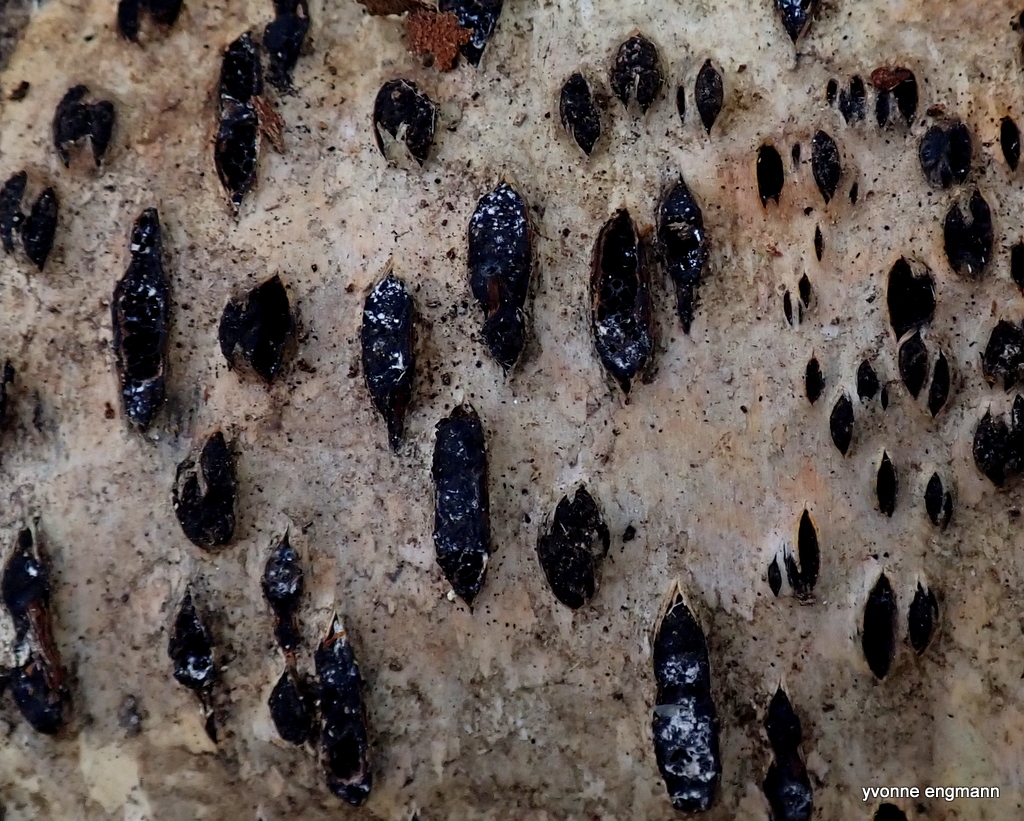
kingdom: Fungi
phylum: Ascomycota
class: Sordariomycetes
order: Xylariales
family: Diatrypaceae
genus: Diatrypella
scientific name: Diatrypella favacea
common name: klemt kulskorpe
